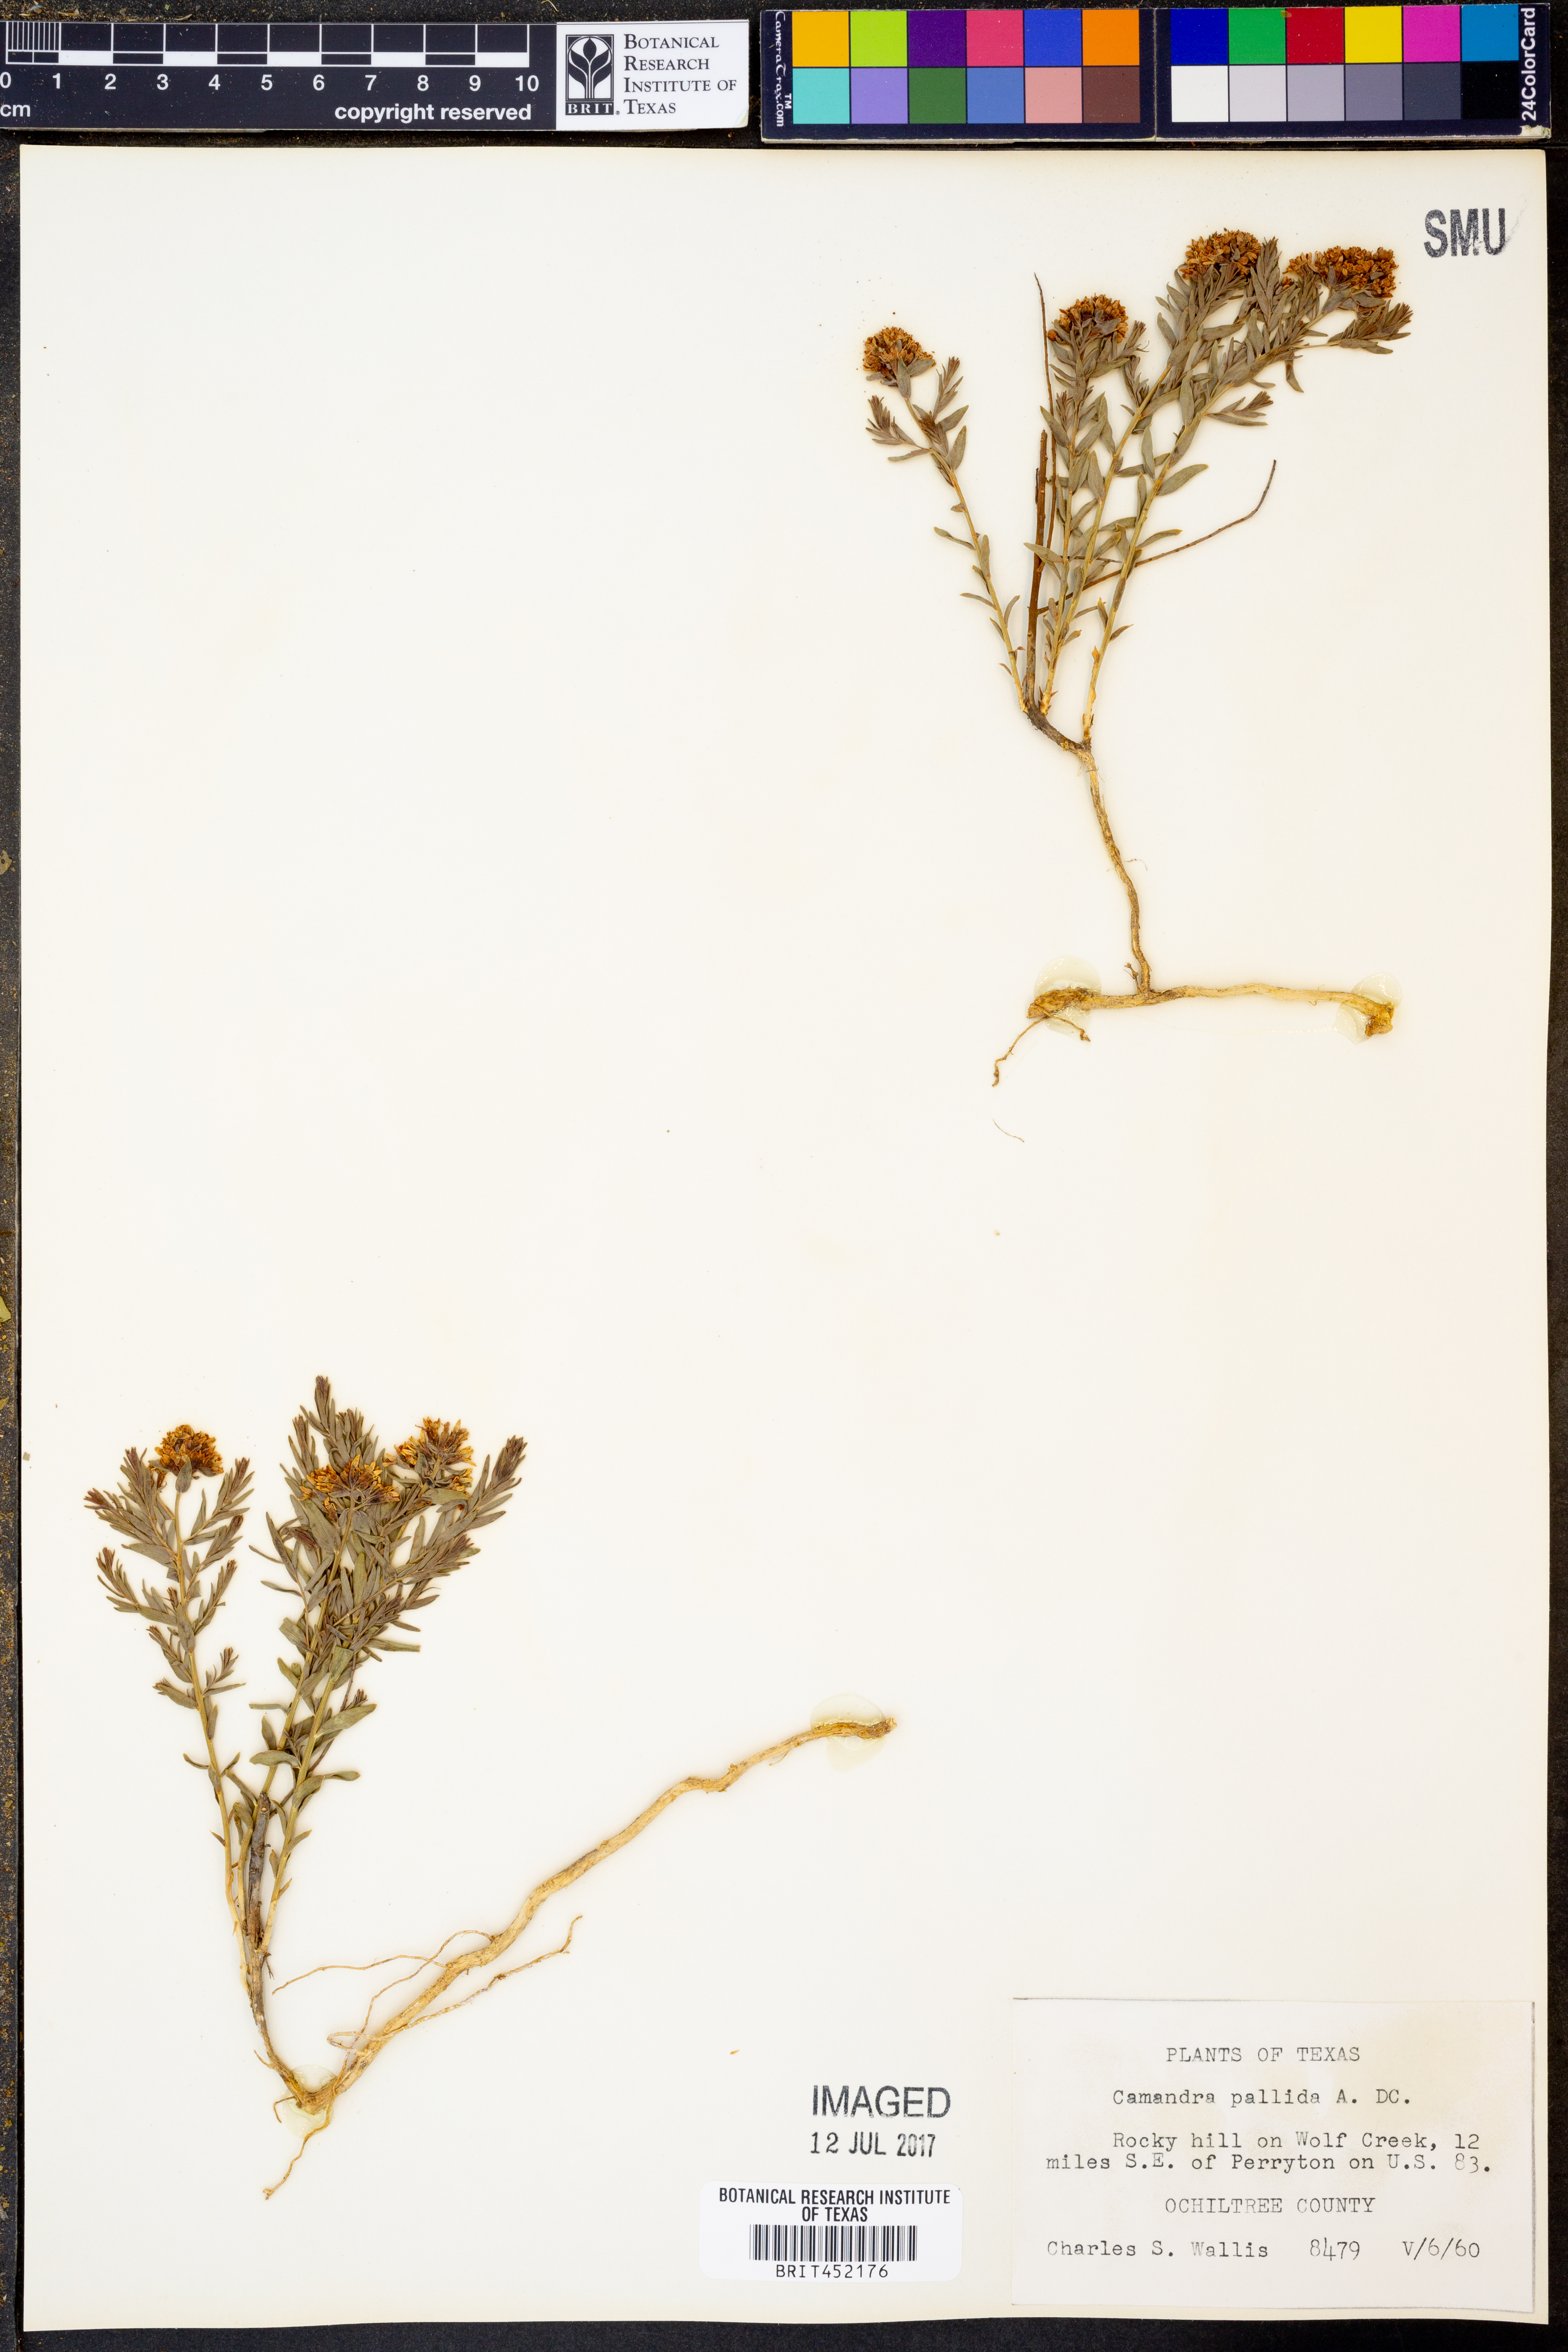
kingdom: Plantae
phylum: Tracheophyta
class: Magnoliopsida
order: Santalales
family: Comandraceae
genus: Comandra
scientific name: Comandra umbellata
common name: Bastard toadflax
